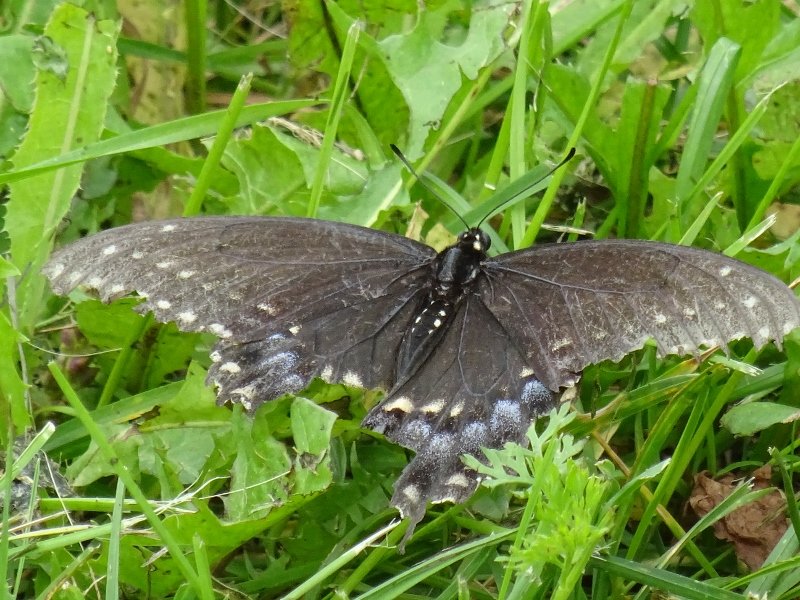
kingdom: Animalia
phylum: Arthropoda
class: Insecta
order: Lepidoptera
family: Papilionidae
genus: Papilio
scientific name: Papilio polyxenes
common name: Black Swallowtail
